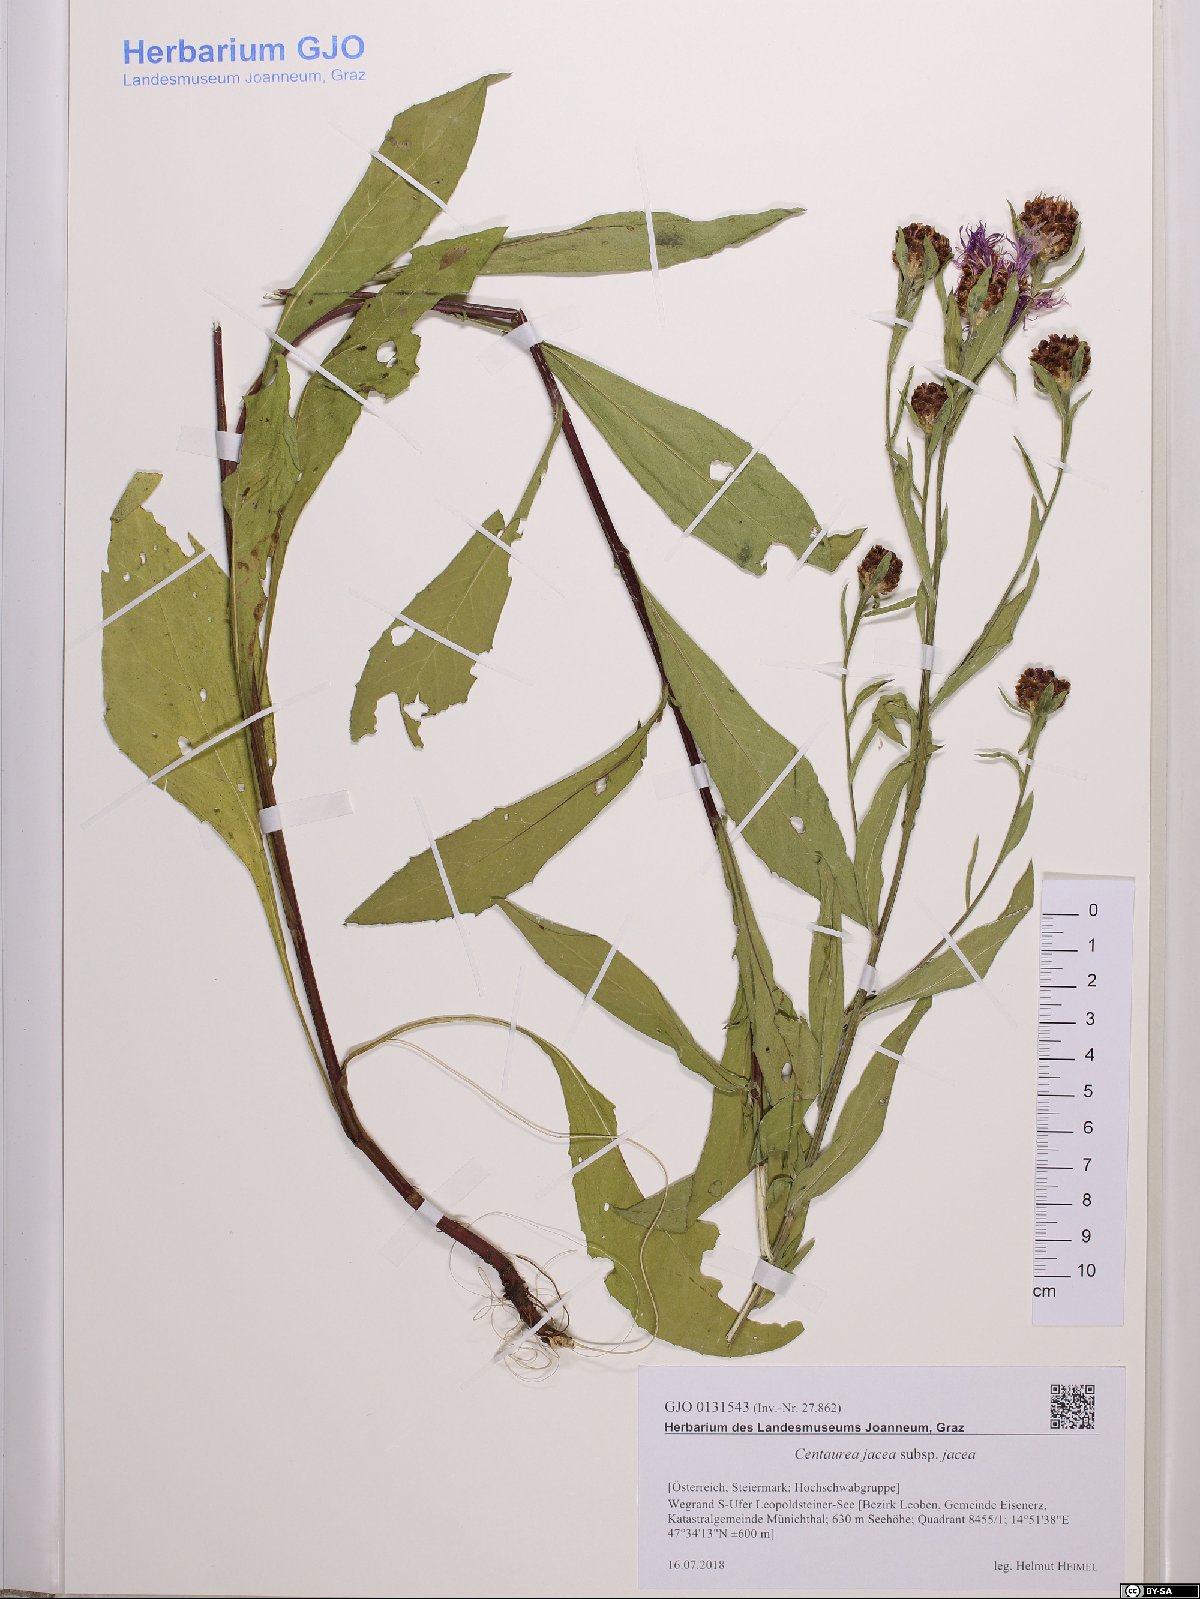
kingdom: Plantae
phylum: Tracheophyta
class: Magnoliopsida
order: Asterales
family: Asteraceae
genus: Centaurea
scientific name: Centaurea jacea
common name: Brown knapweed
